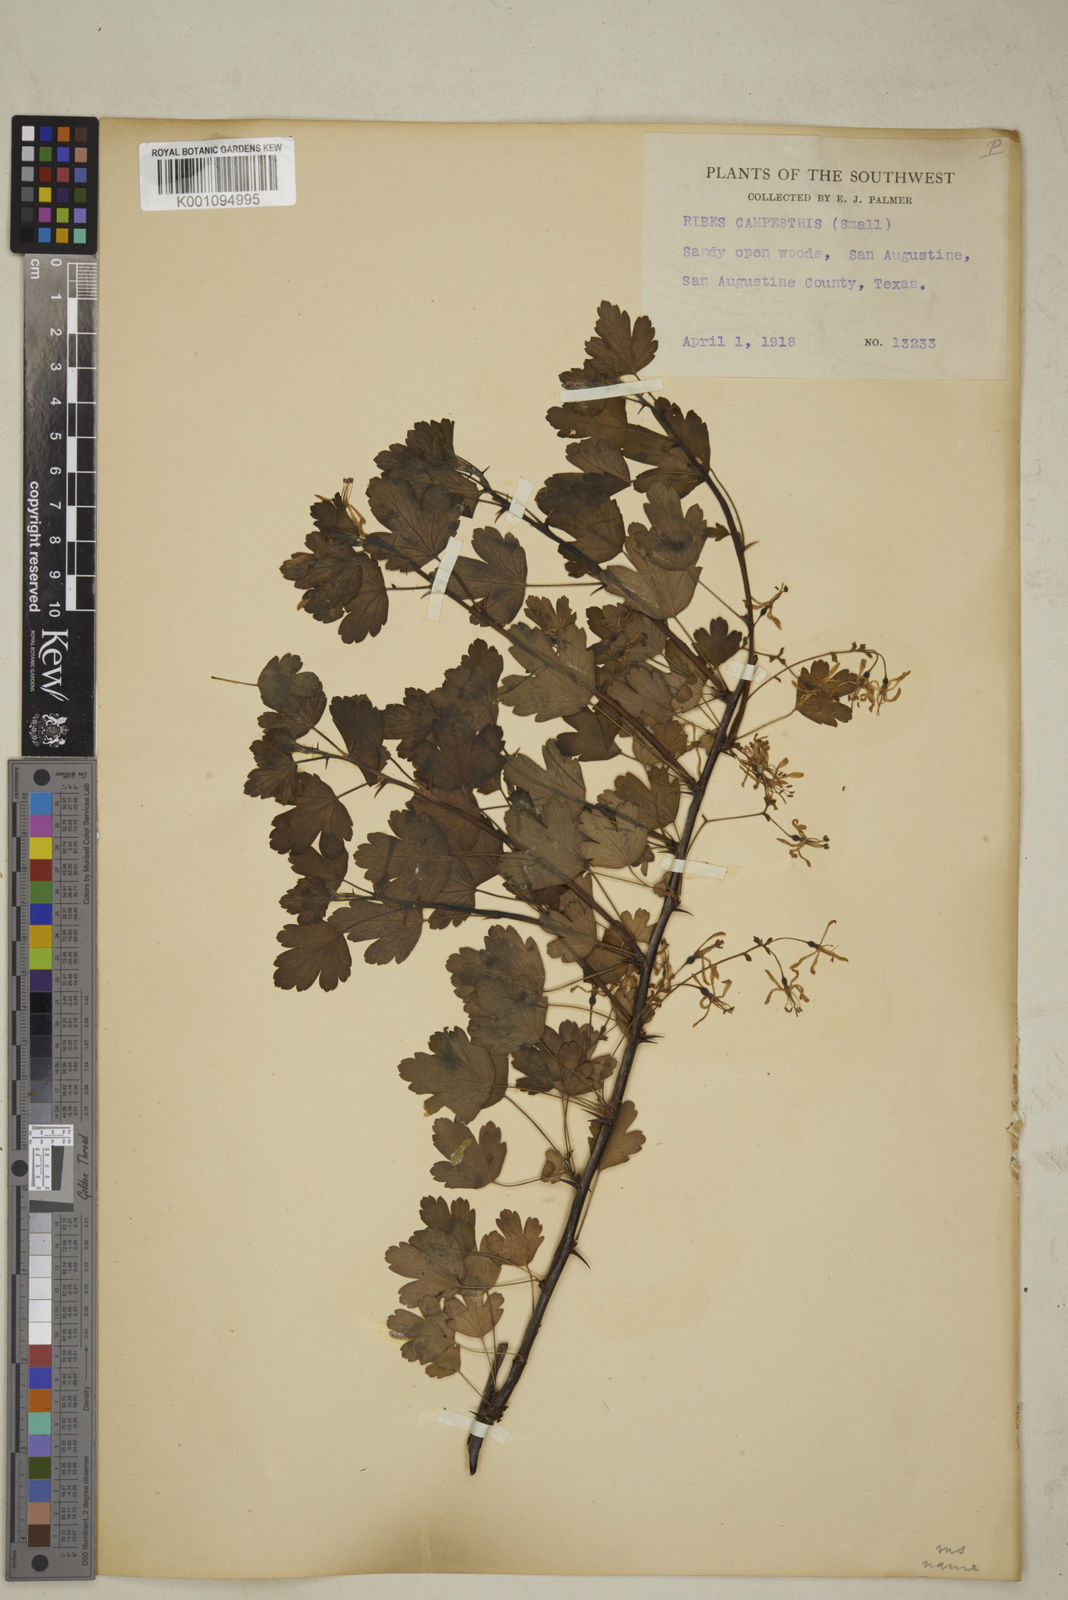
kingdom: Plantae
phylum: Tracheophyta
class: Magnoliopsida
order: Saxifragales
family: Grossulariaceae
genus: Ribes
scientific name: Ribes
